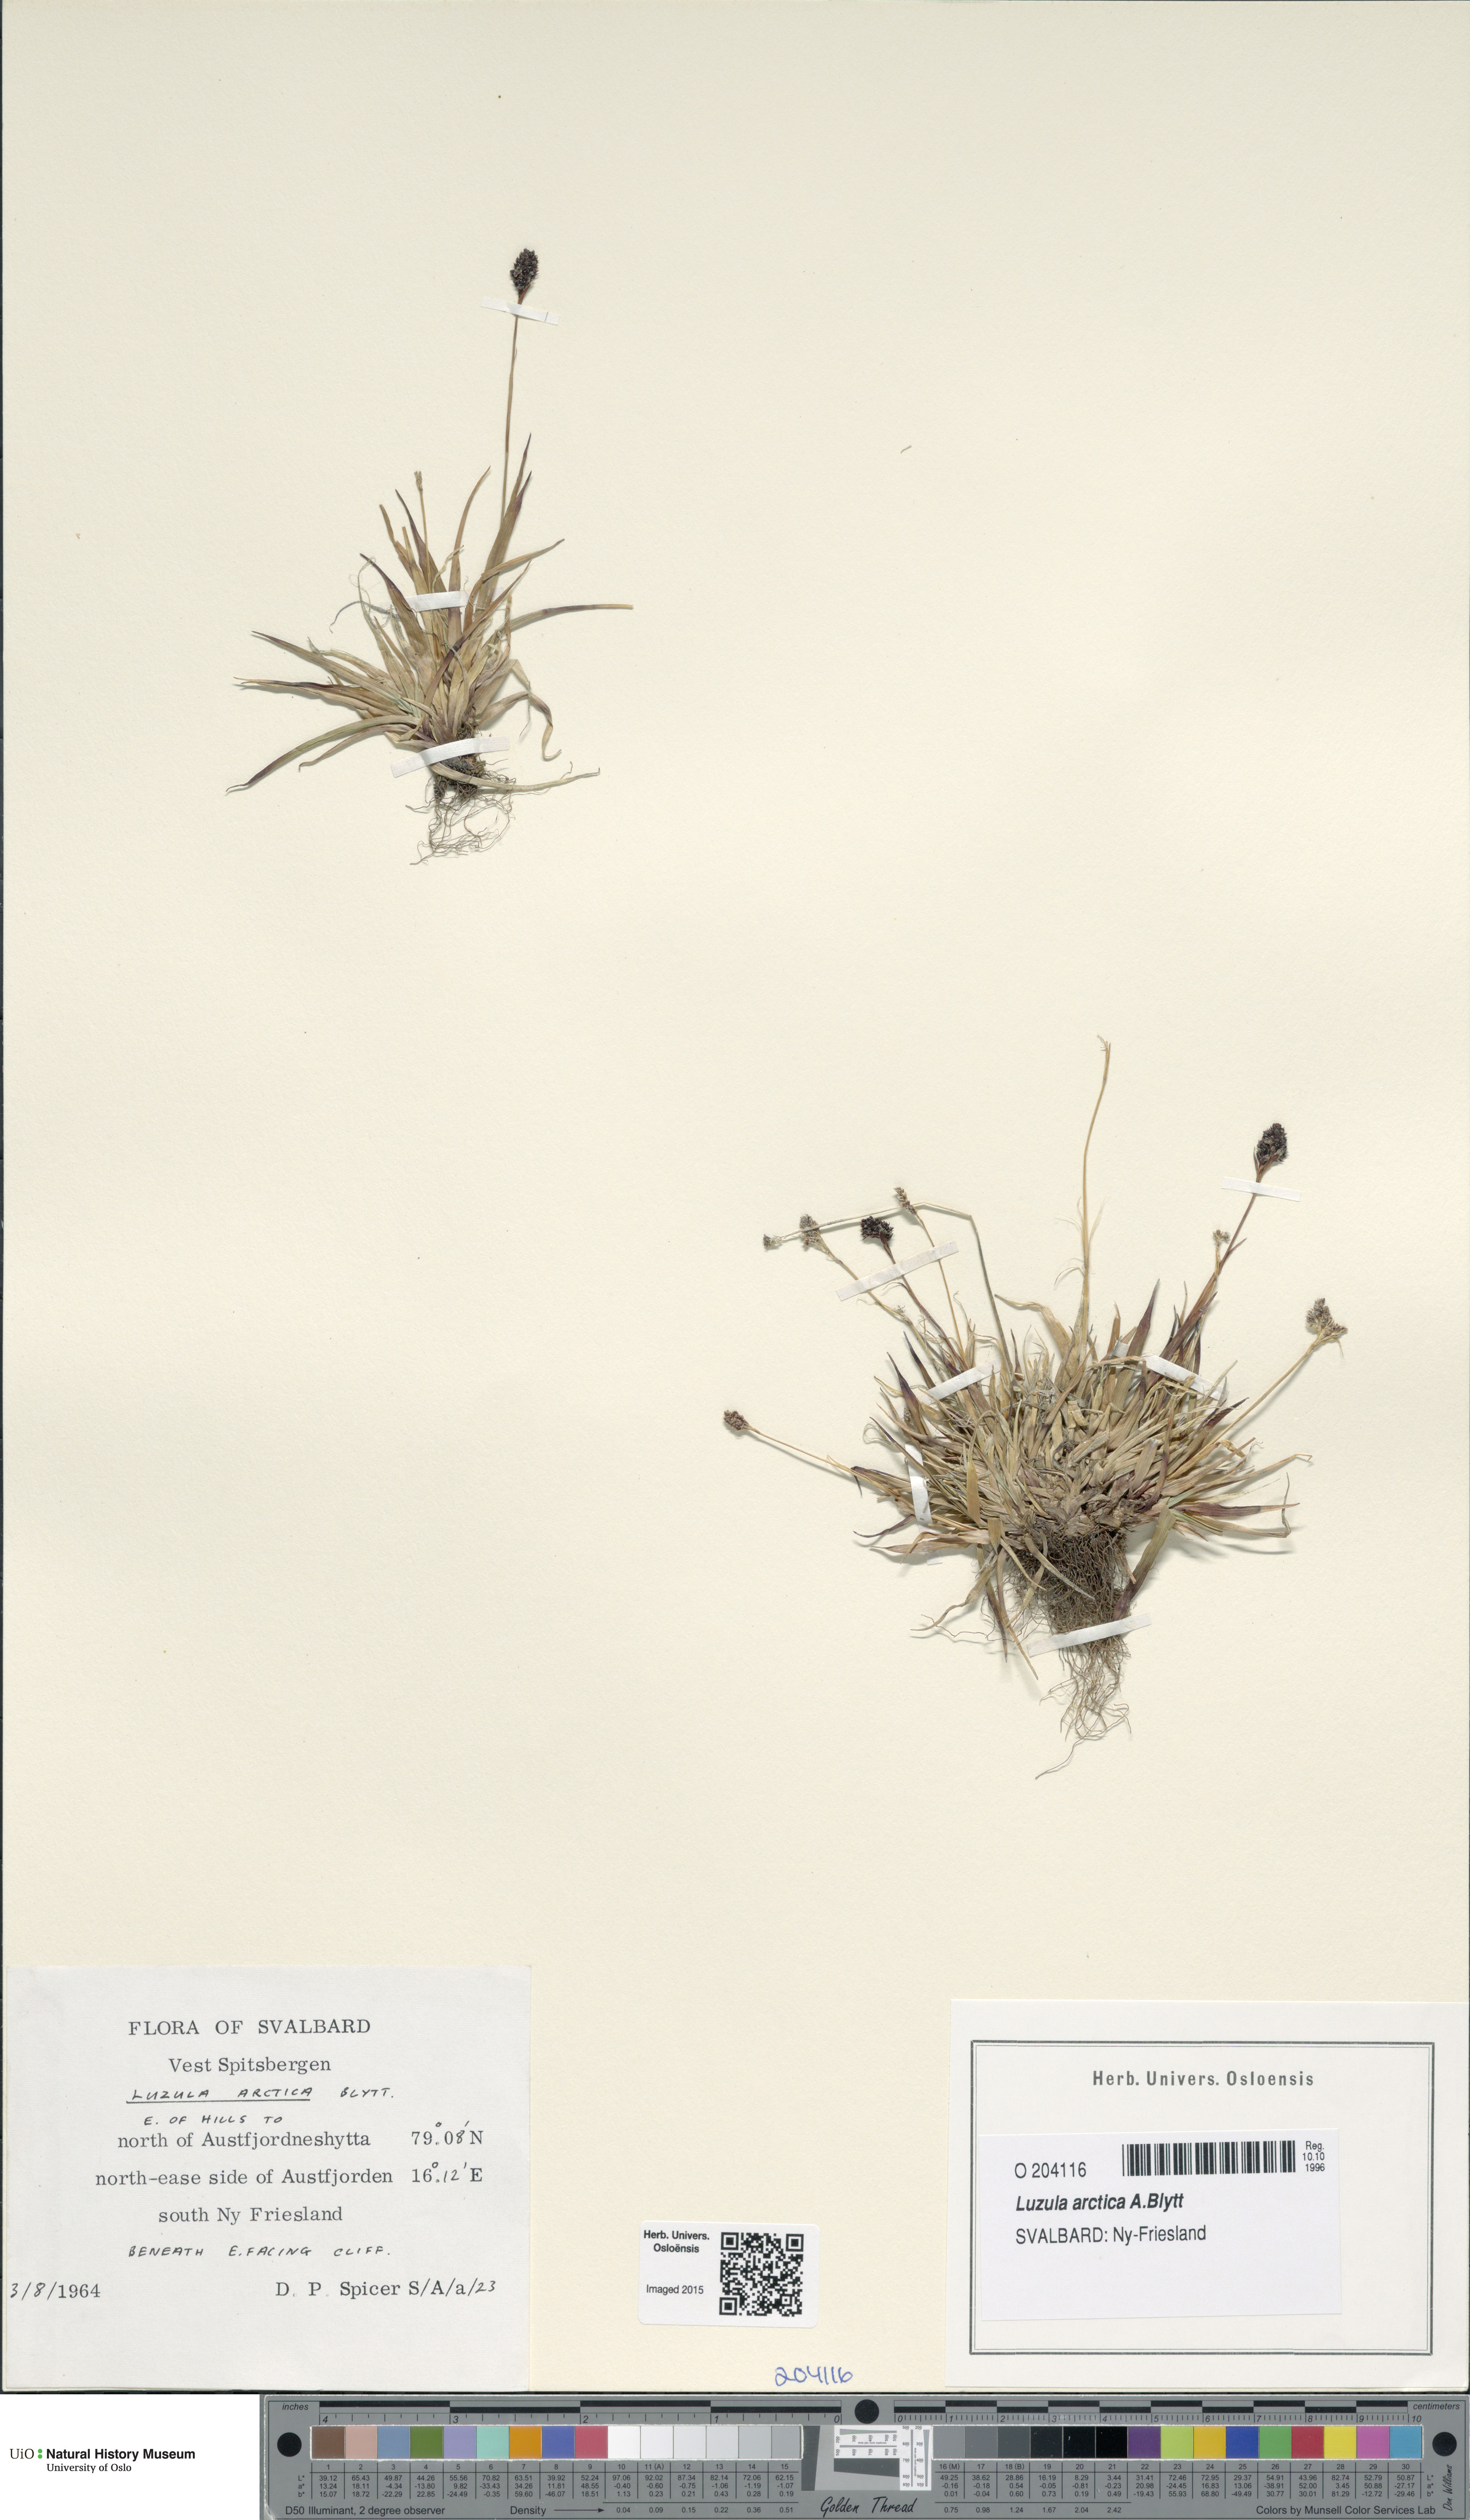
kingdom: Plantae
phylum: Tracheophyta
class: Liliopsida
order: Poales
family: Juncaceae
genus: Luzula
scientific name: Luzula nivalis
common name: Arctic woodrush
